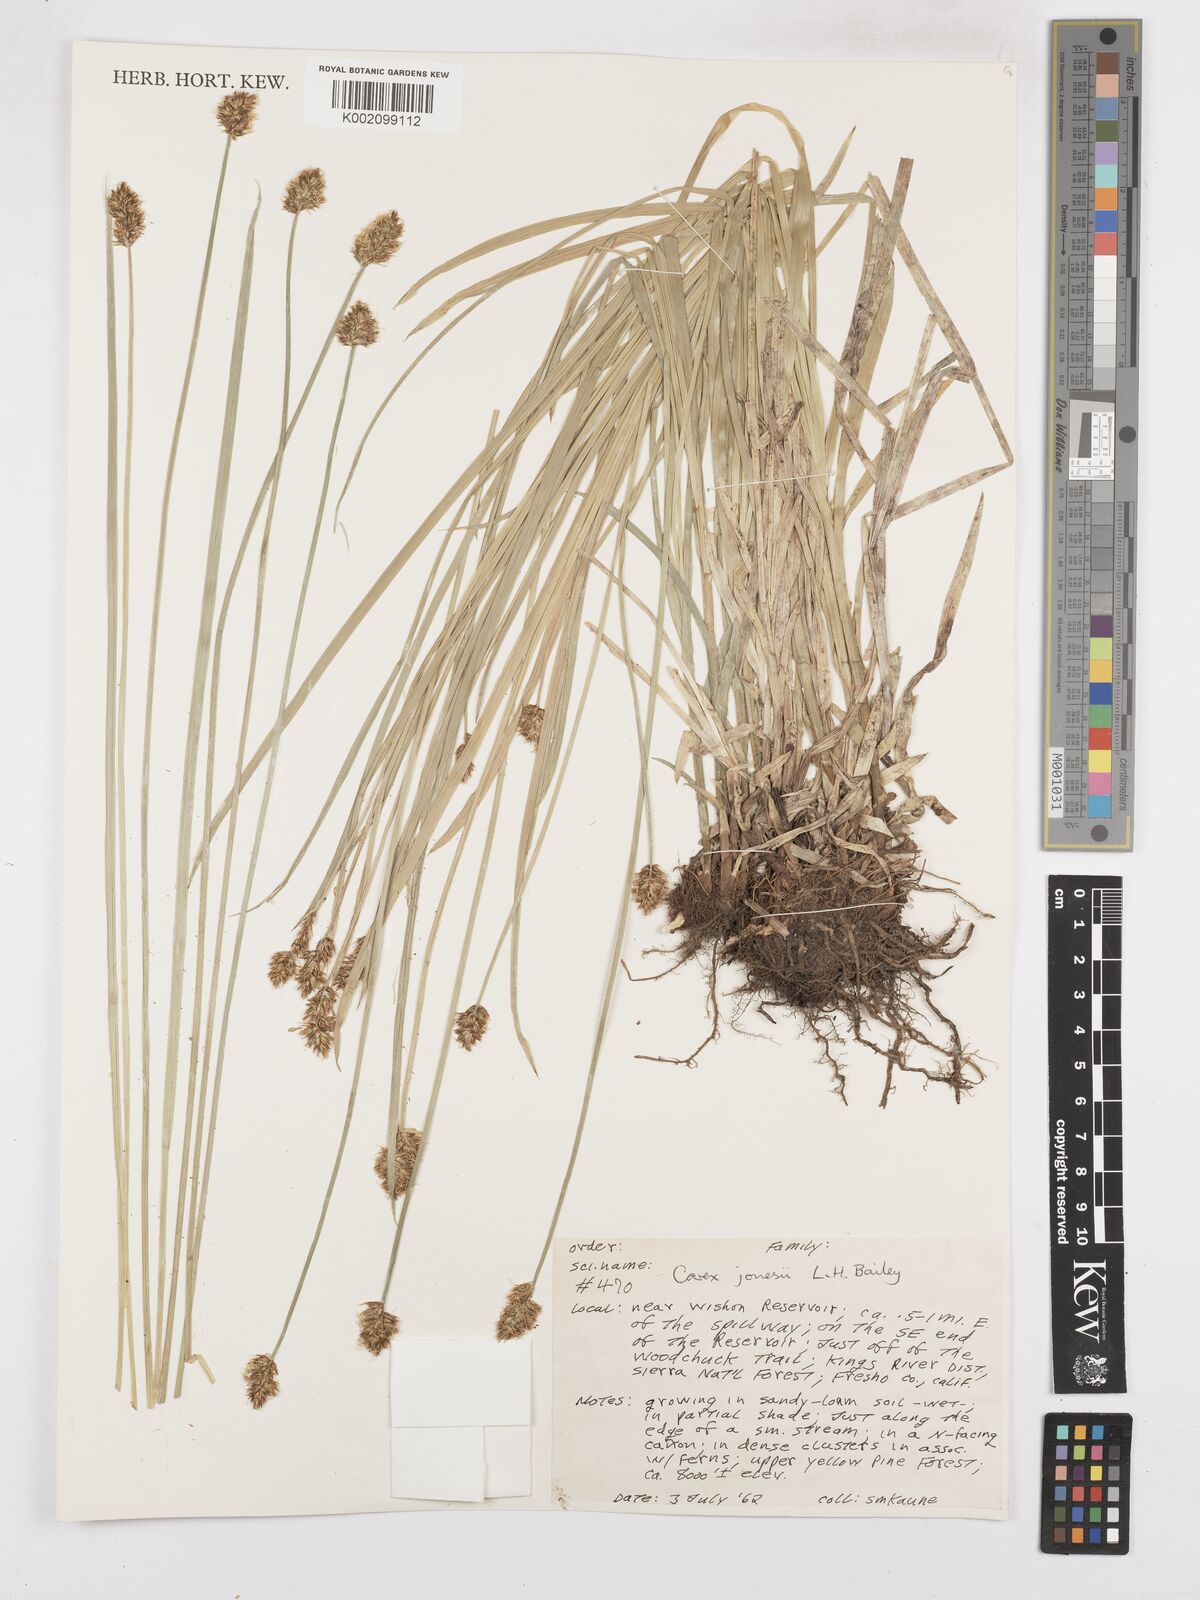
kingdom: Plantae
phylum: Tracheophyta
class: Liliopsida
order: Poales
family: Cyperaceae
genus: Carex
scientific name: Carex jonesii
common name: Jones' sedge
